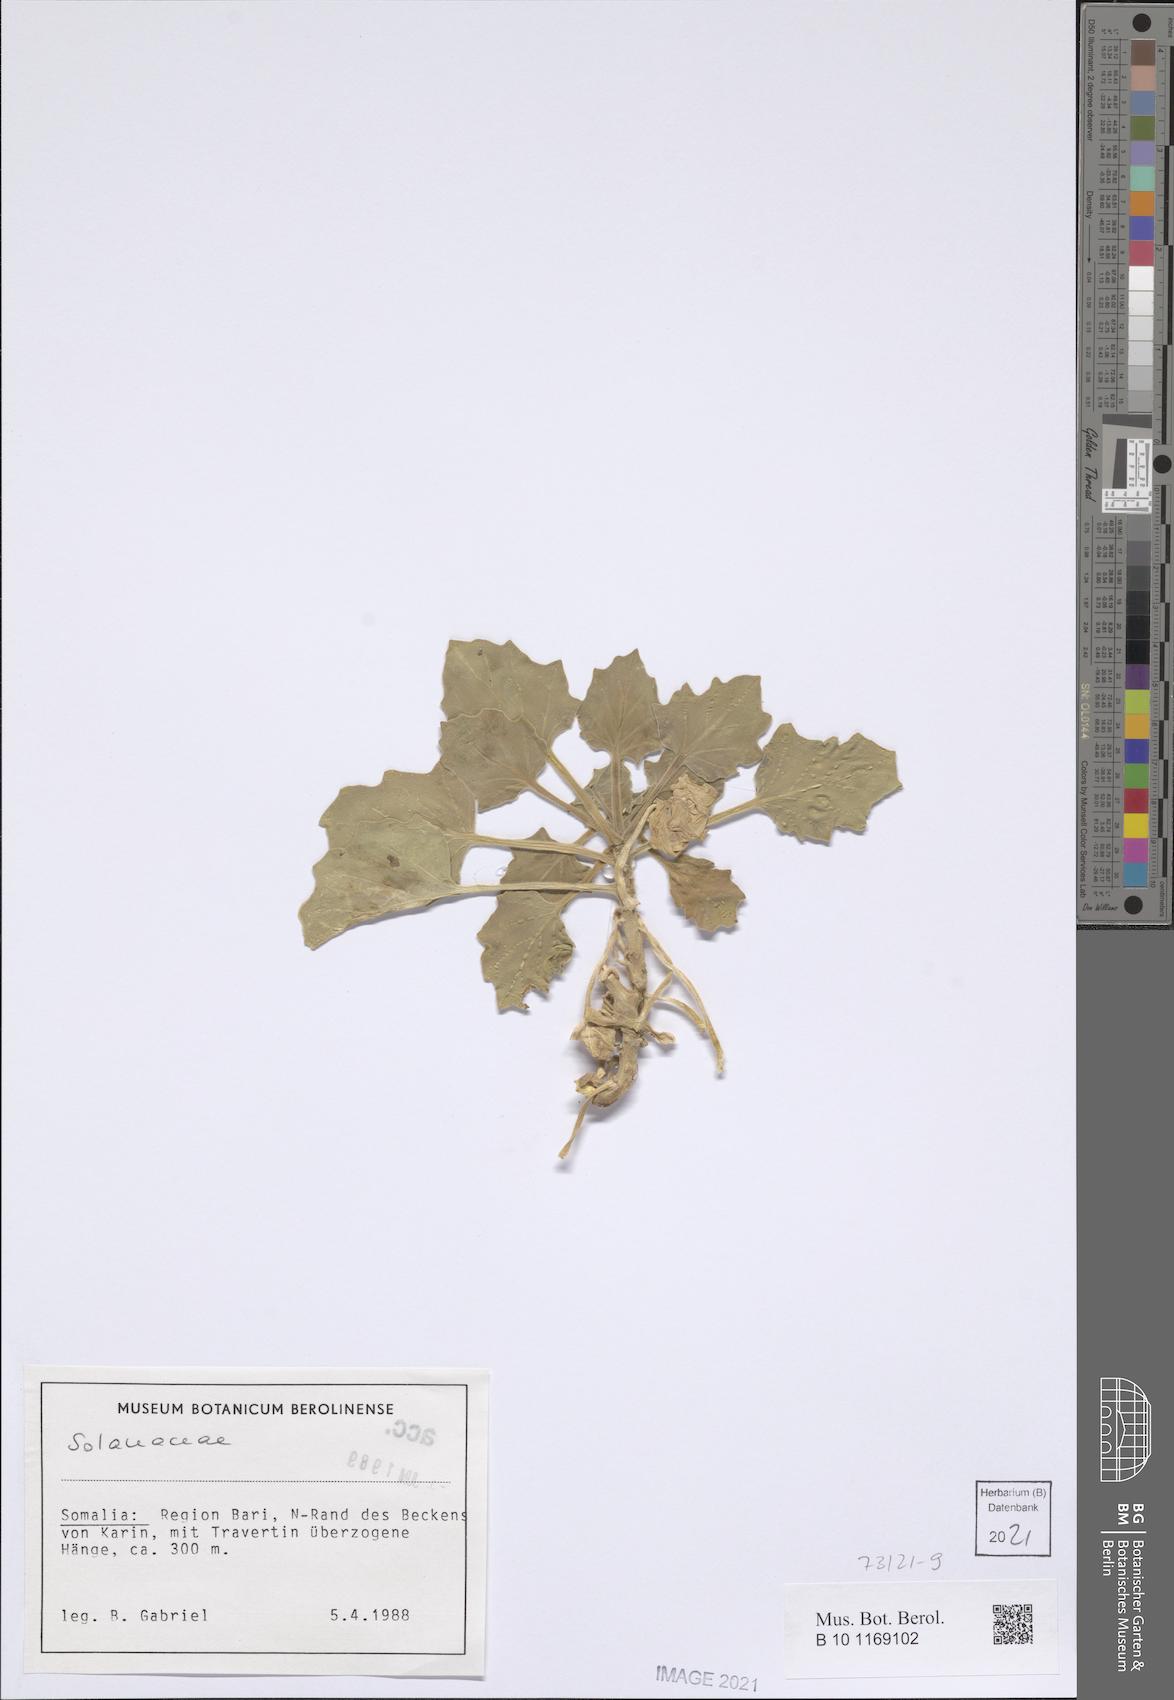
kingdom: Plantae
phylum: Tracheophyta
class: Magnoliopsida
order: Solanales
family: Solanaceae
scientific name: Solanaceae
